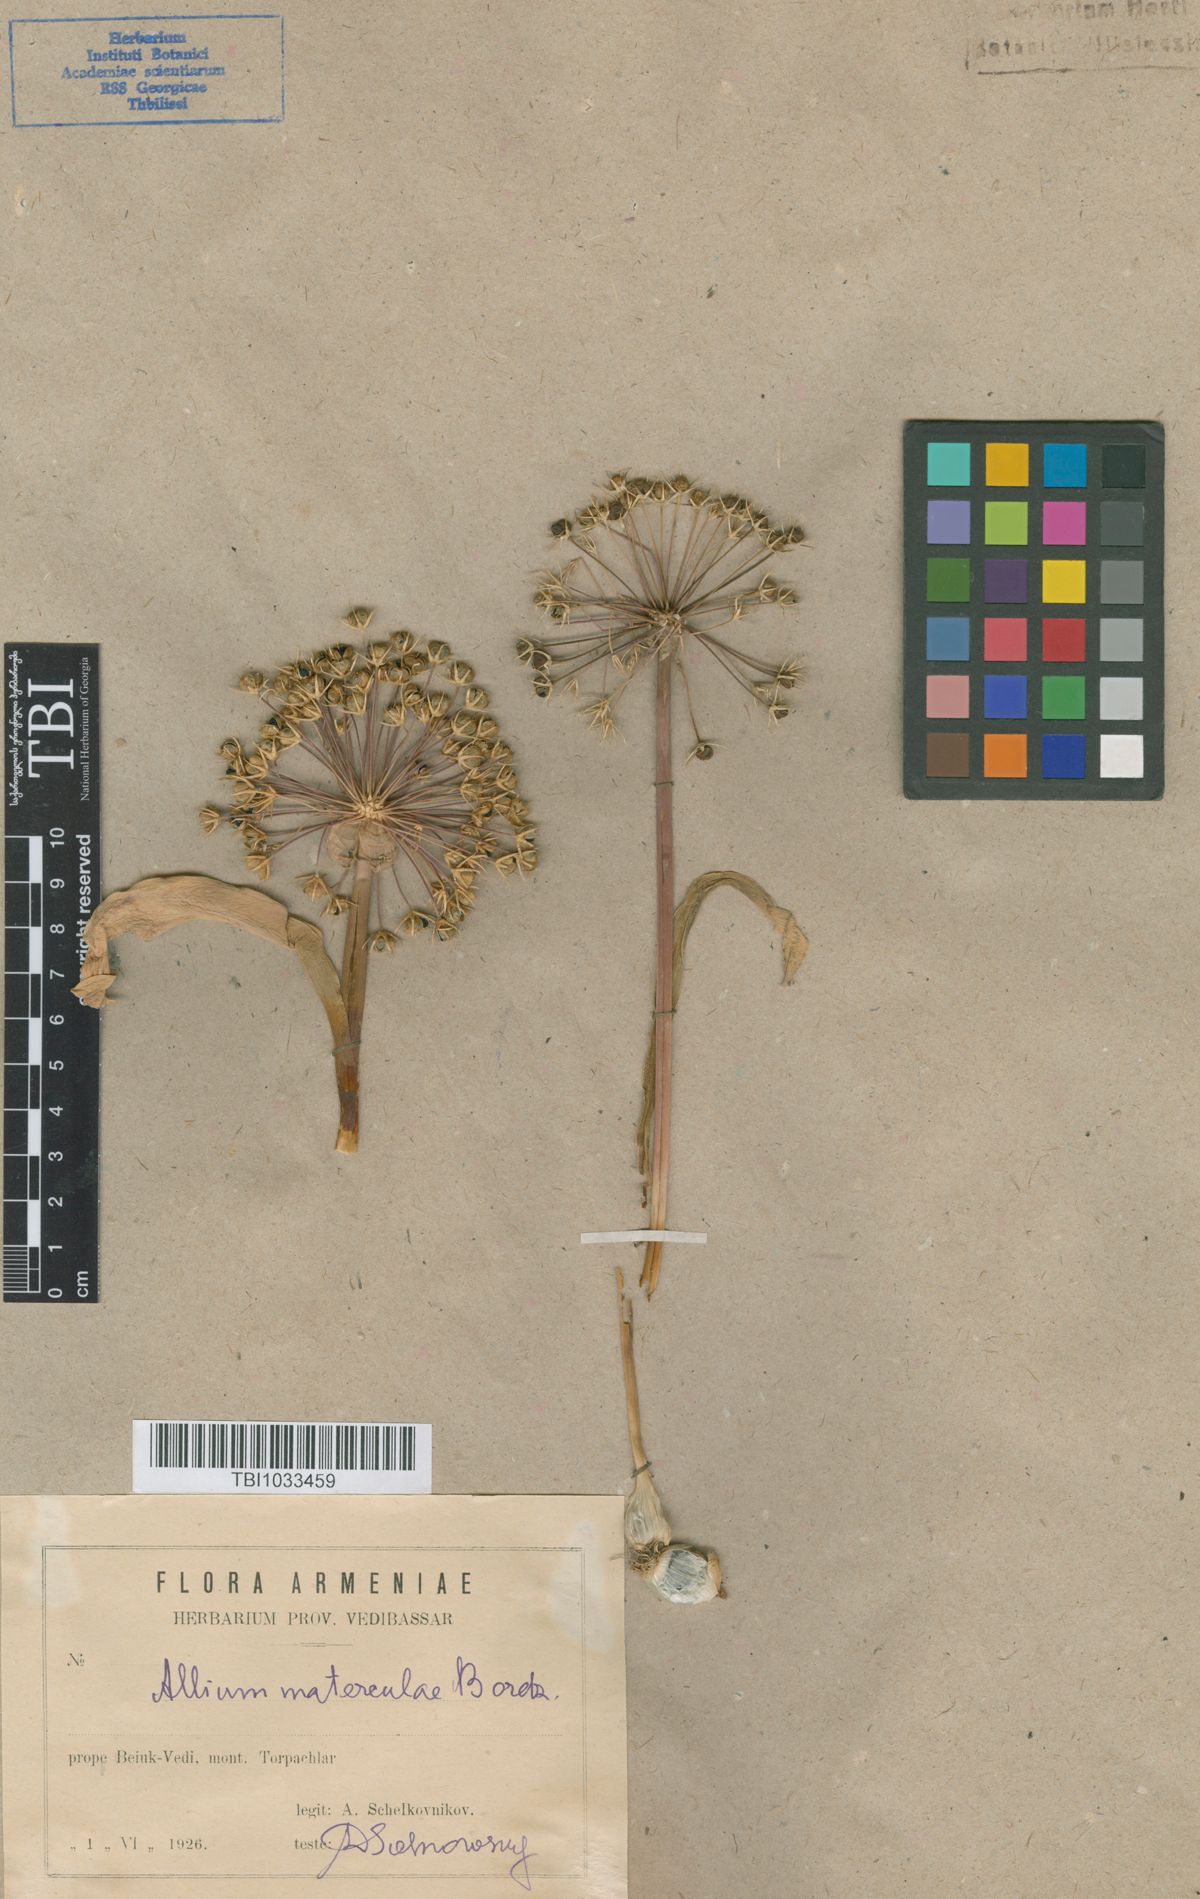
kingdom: Plantae
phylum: Tracheophyta
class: Liliopsida
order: Asparagales
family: Amaryllidaceae
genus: Allium
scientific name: Allium materculae
